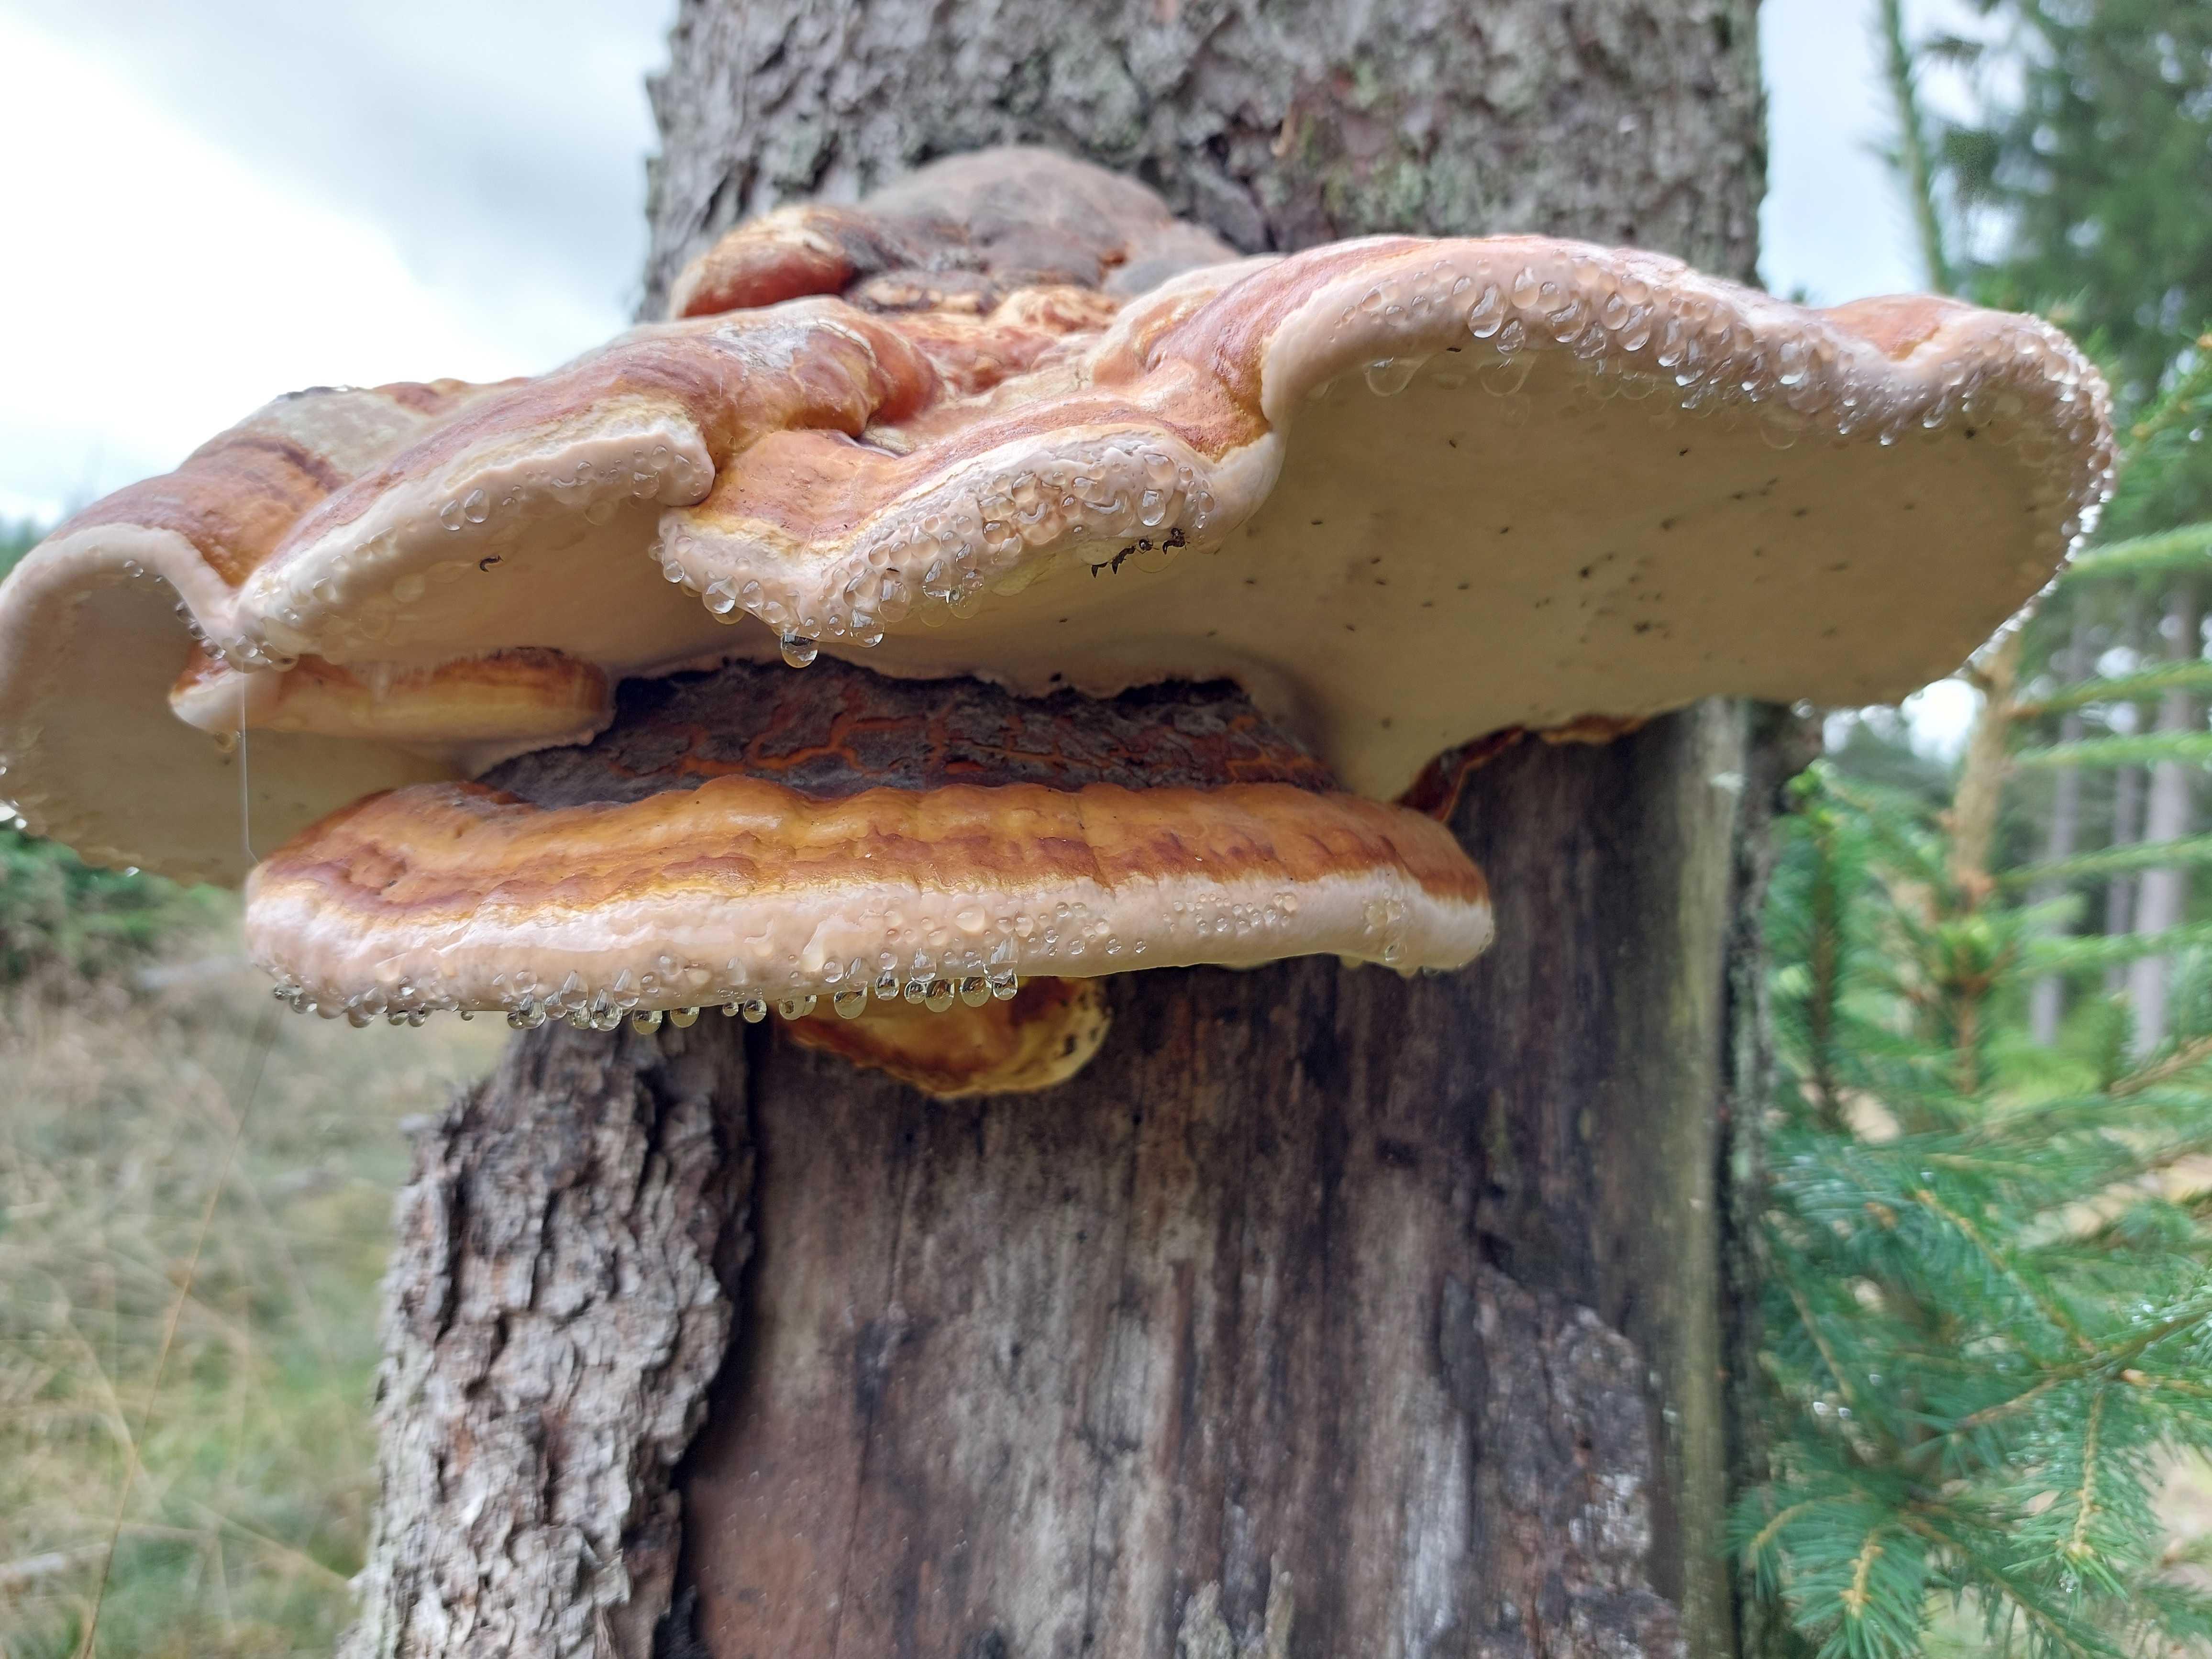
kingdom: Fungi
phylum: Basidiomycota
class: Agaricomycetes
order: Polyporales
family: Fomitopsidaceae
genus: Fomitopsis
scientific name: Fomitopsis pinicola
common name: randbæltet hovporesvamp
